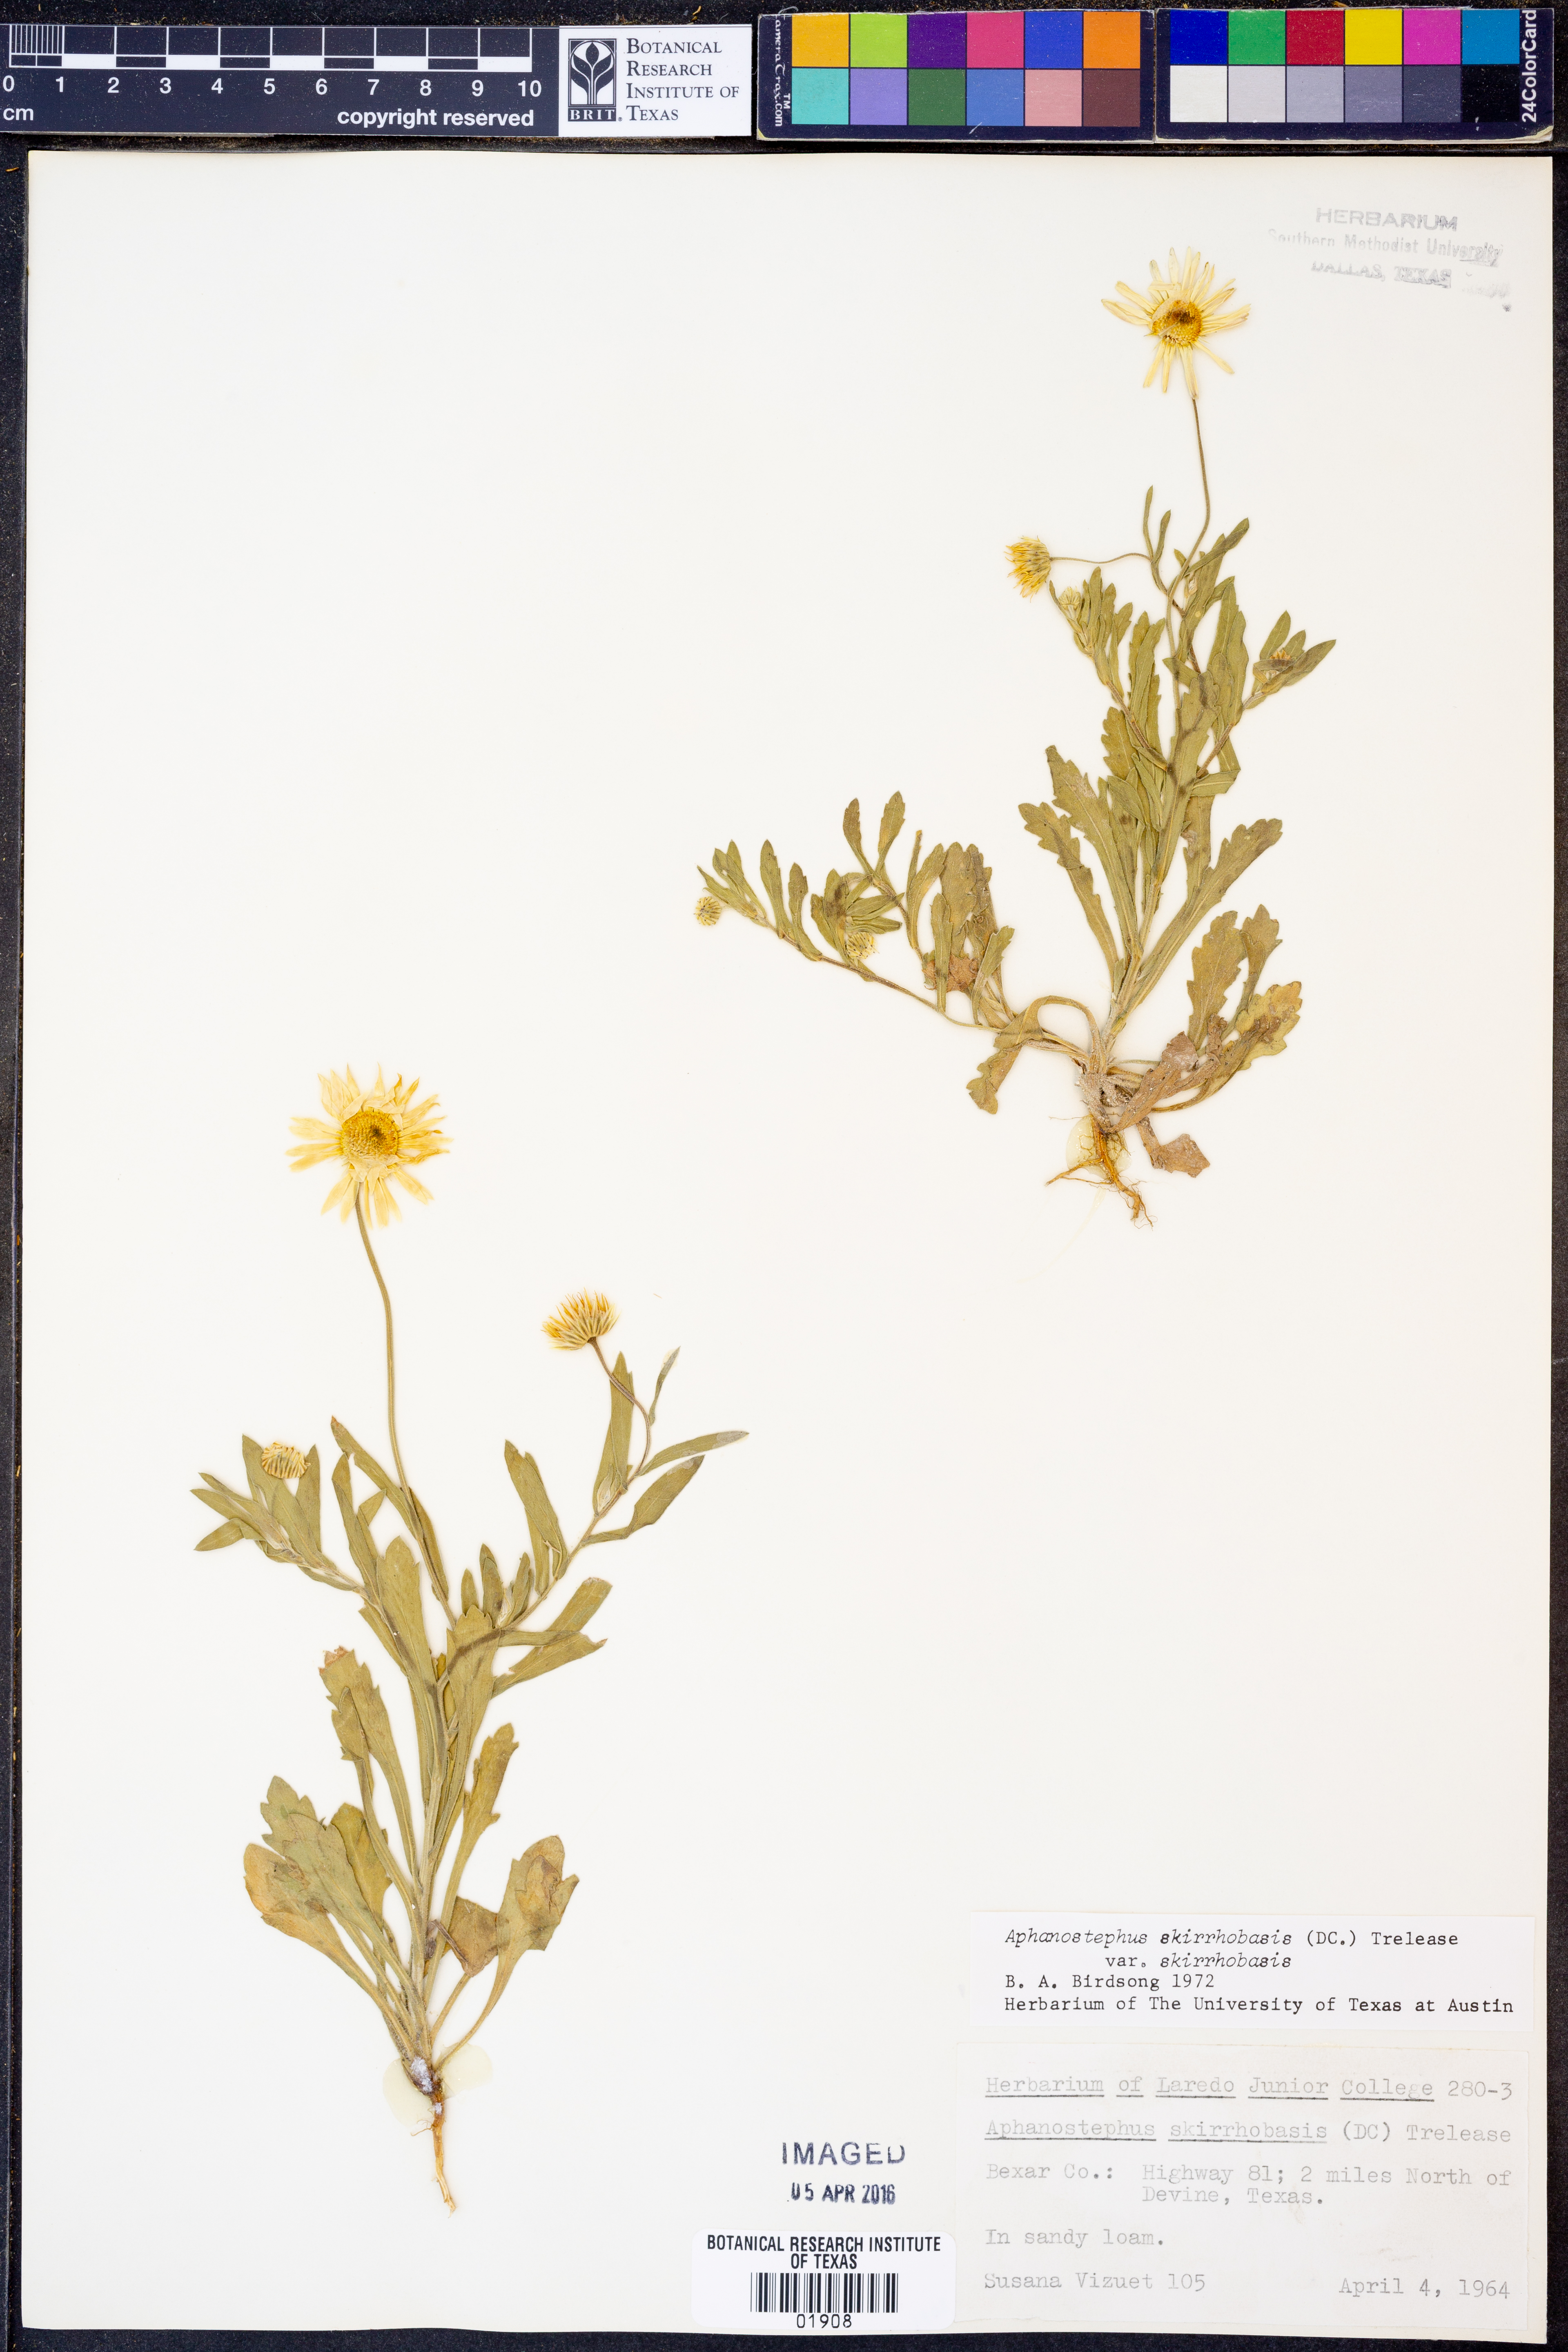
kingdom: Plantae
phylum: Tracheophyta
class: Magnoliopsida
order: Asterales
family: Asteraceae
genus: Aphanostephus
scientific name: Aphanostephus skirrhobasis
